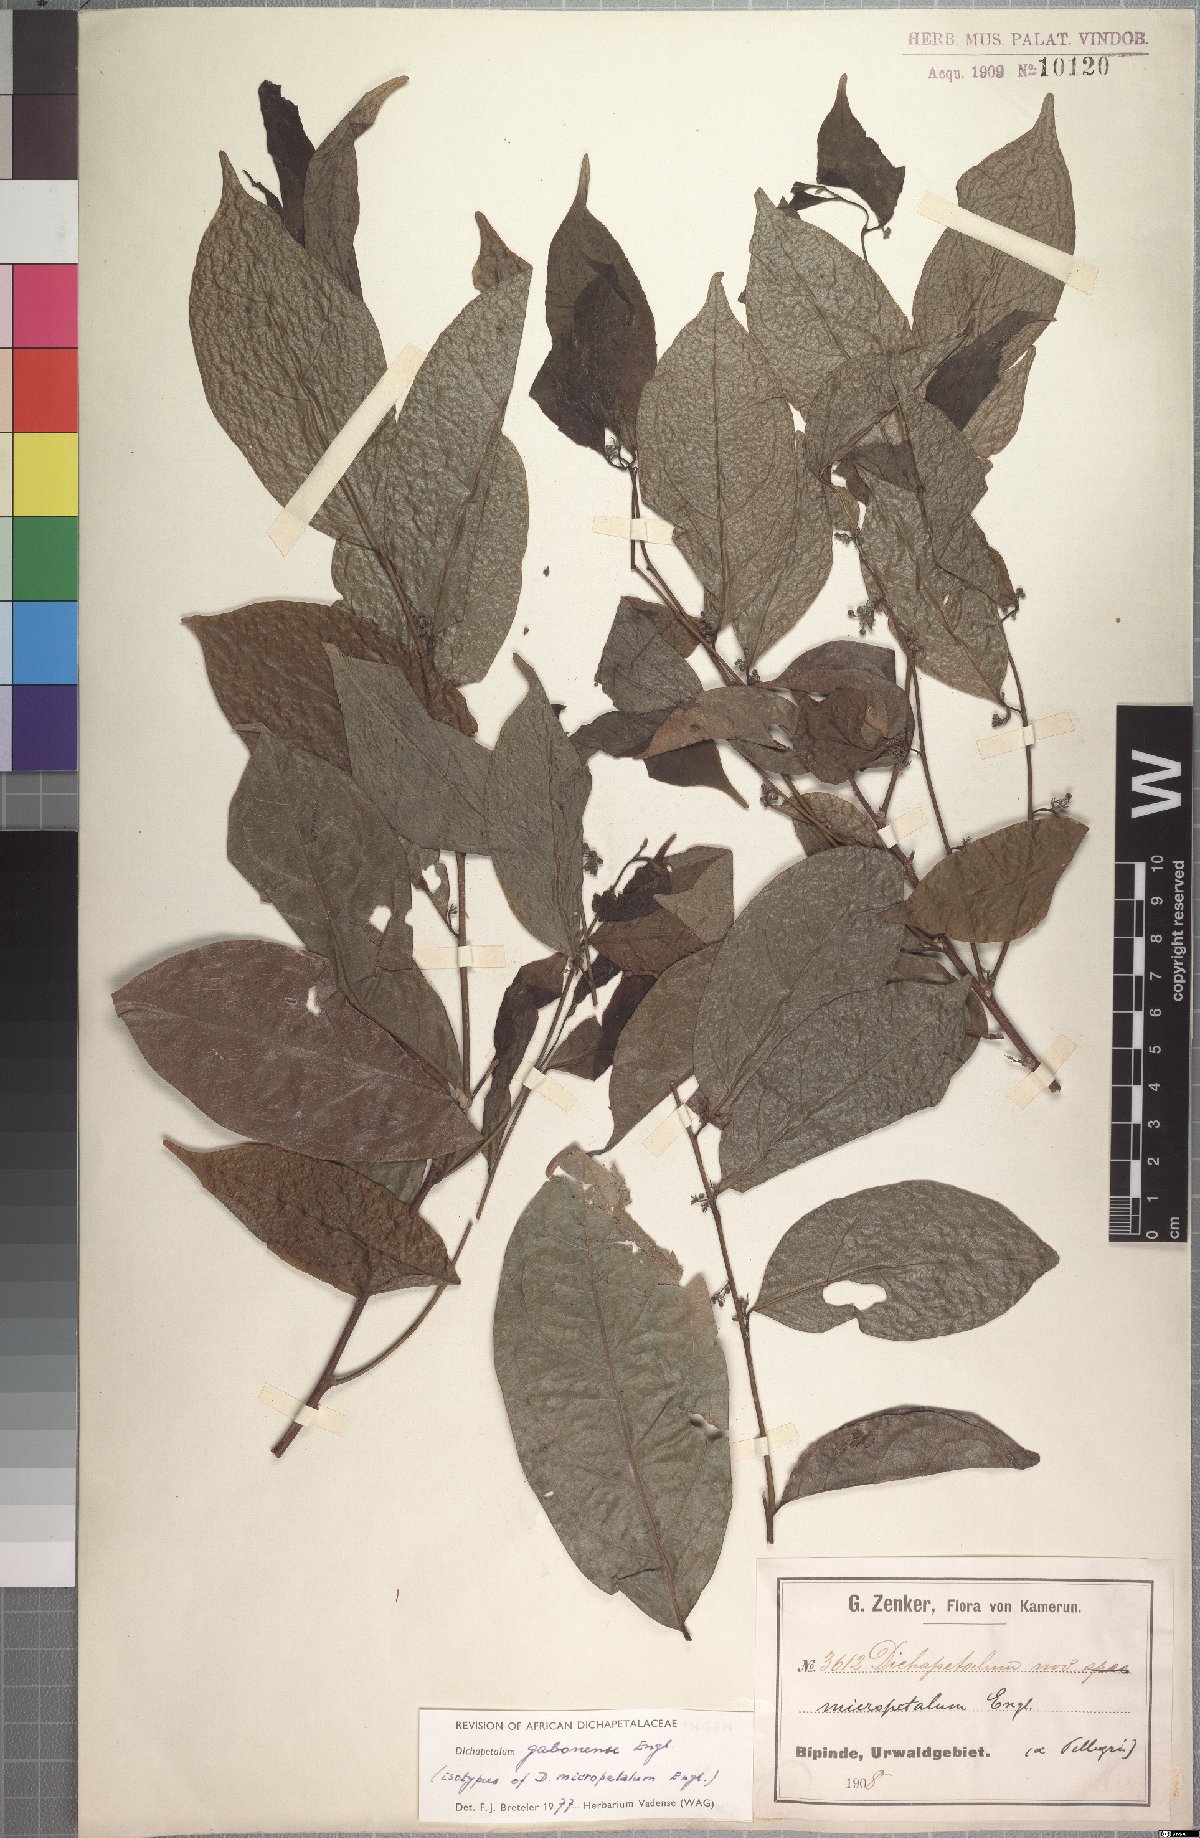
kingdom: Plantae
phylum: Tracheophyta
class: Magnoliopsida
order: Malpighiales
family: Dichapetalaceae
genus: Dichapetalum
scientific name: Dichapetalum gabonense
